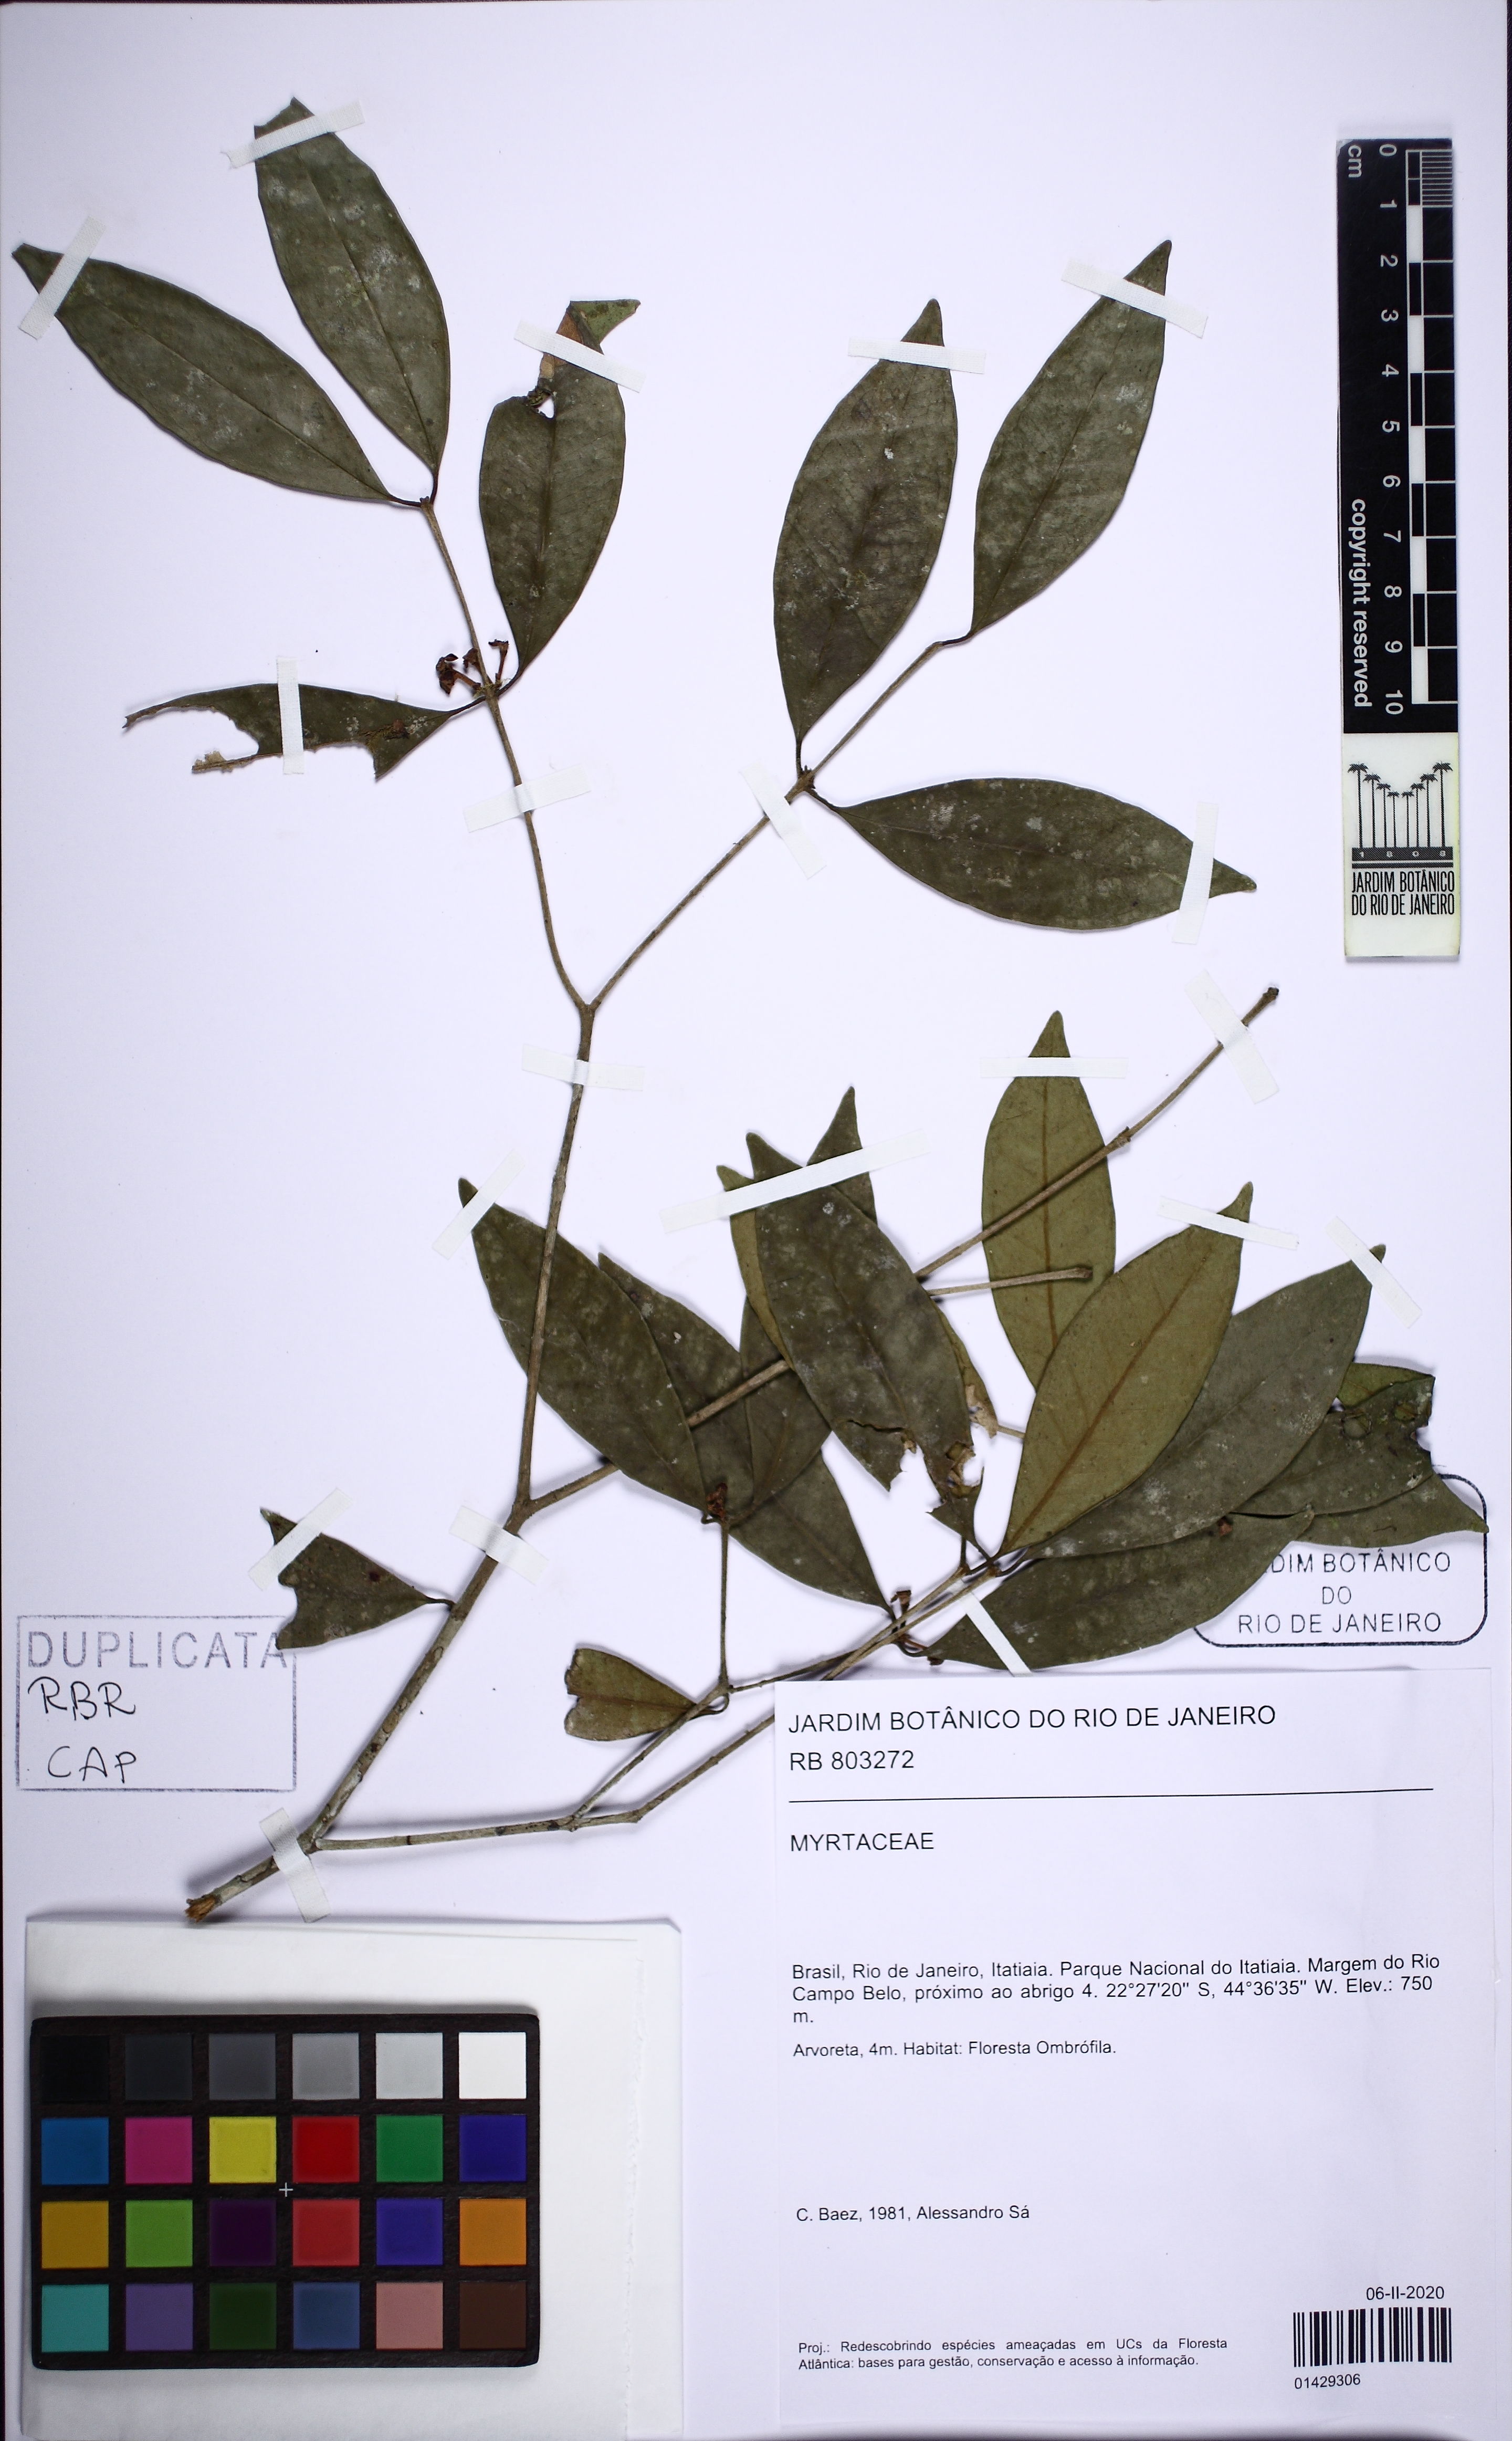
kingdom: Plantae
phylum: Tracheophyta
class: Magnoliopsida
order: Myrtales
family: Myrtaceae
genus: Eugenia
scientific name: Eugenia mimetica
